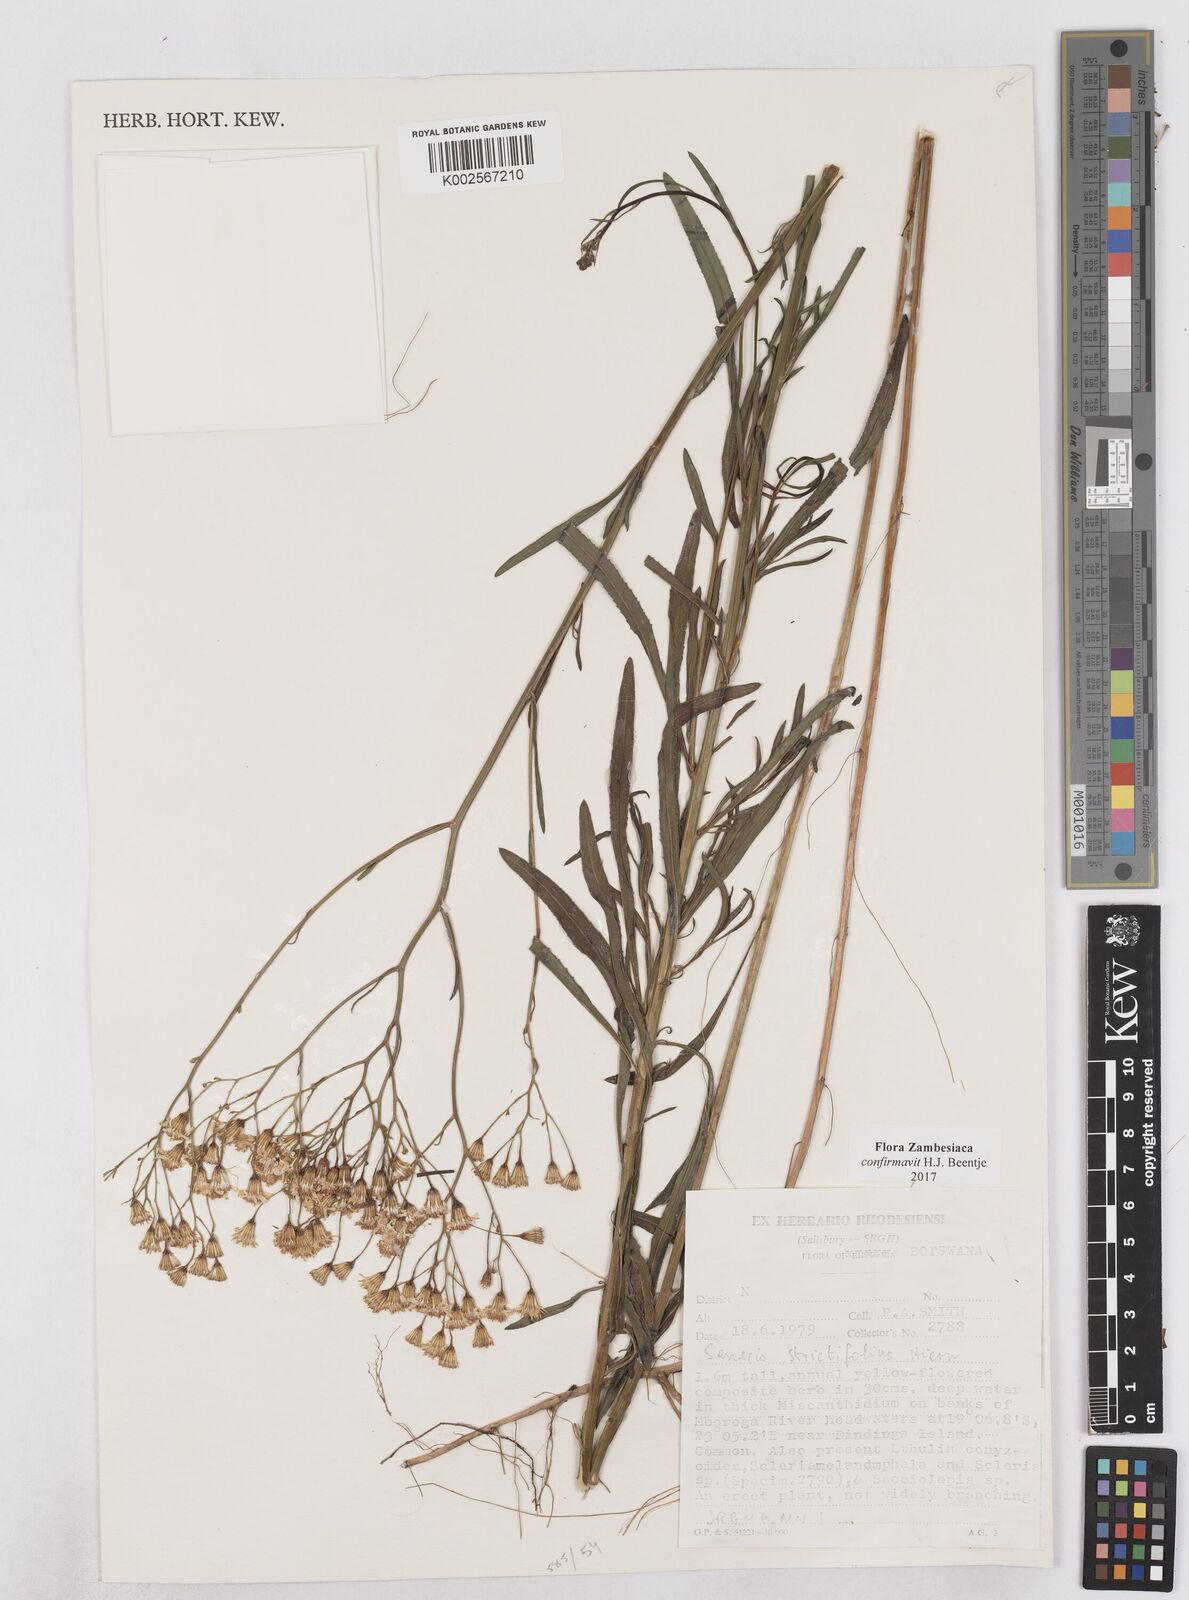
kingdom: Plantae
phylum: Tracheophyta
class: Magnoliopsida
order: Asterales
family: Asteraceae
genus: Senecio
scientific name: Senecio strictifolius
